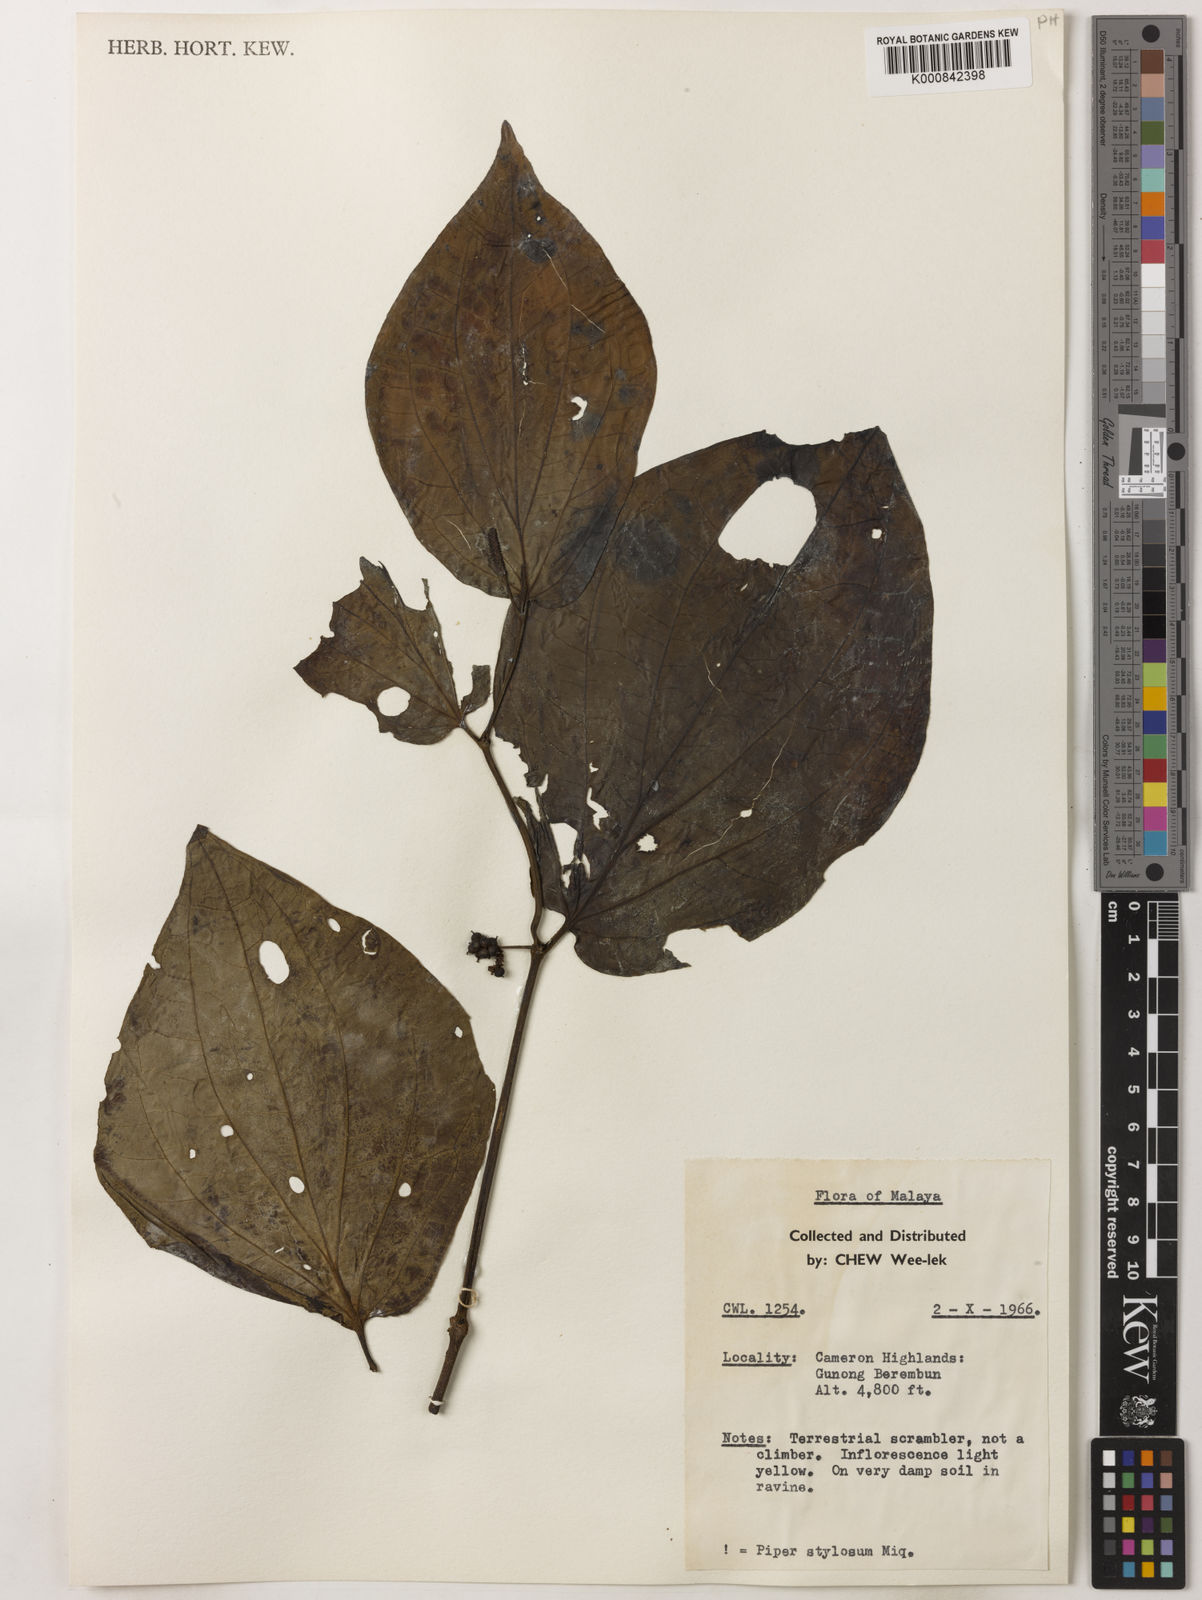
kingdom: Plantae
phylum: Tracheophyta
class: Magnoliopsida
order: Piperales
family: Piperaceae
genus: Piper
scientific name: Piper rostratum
